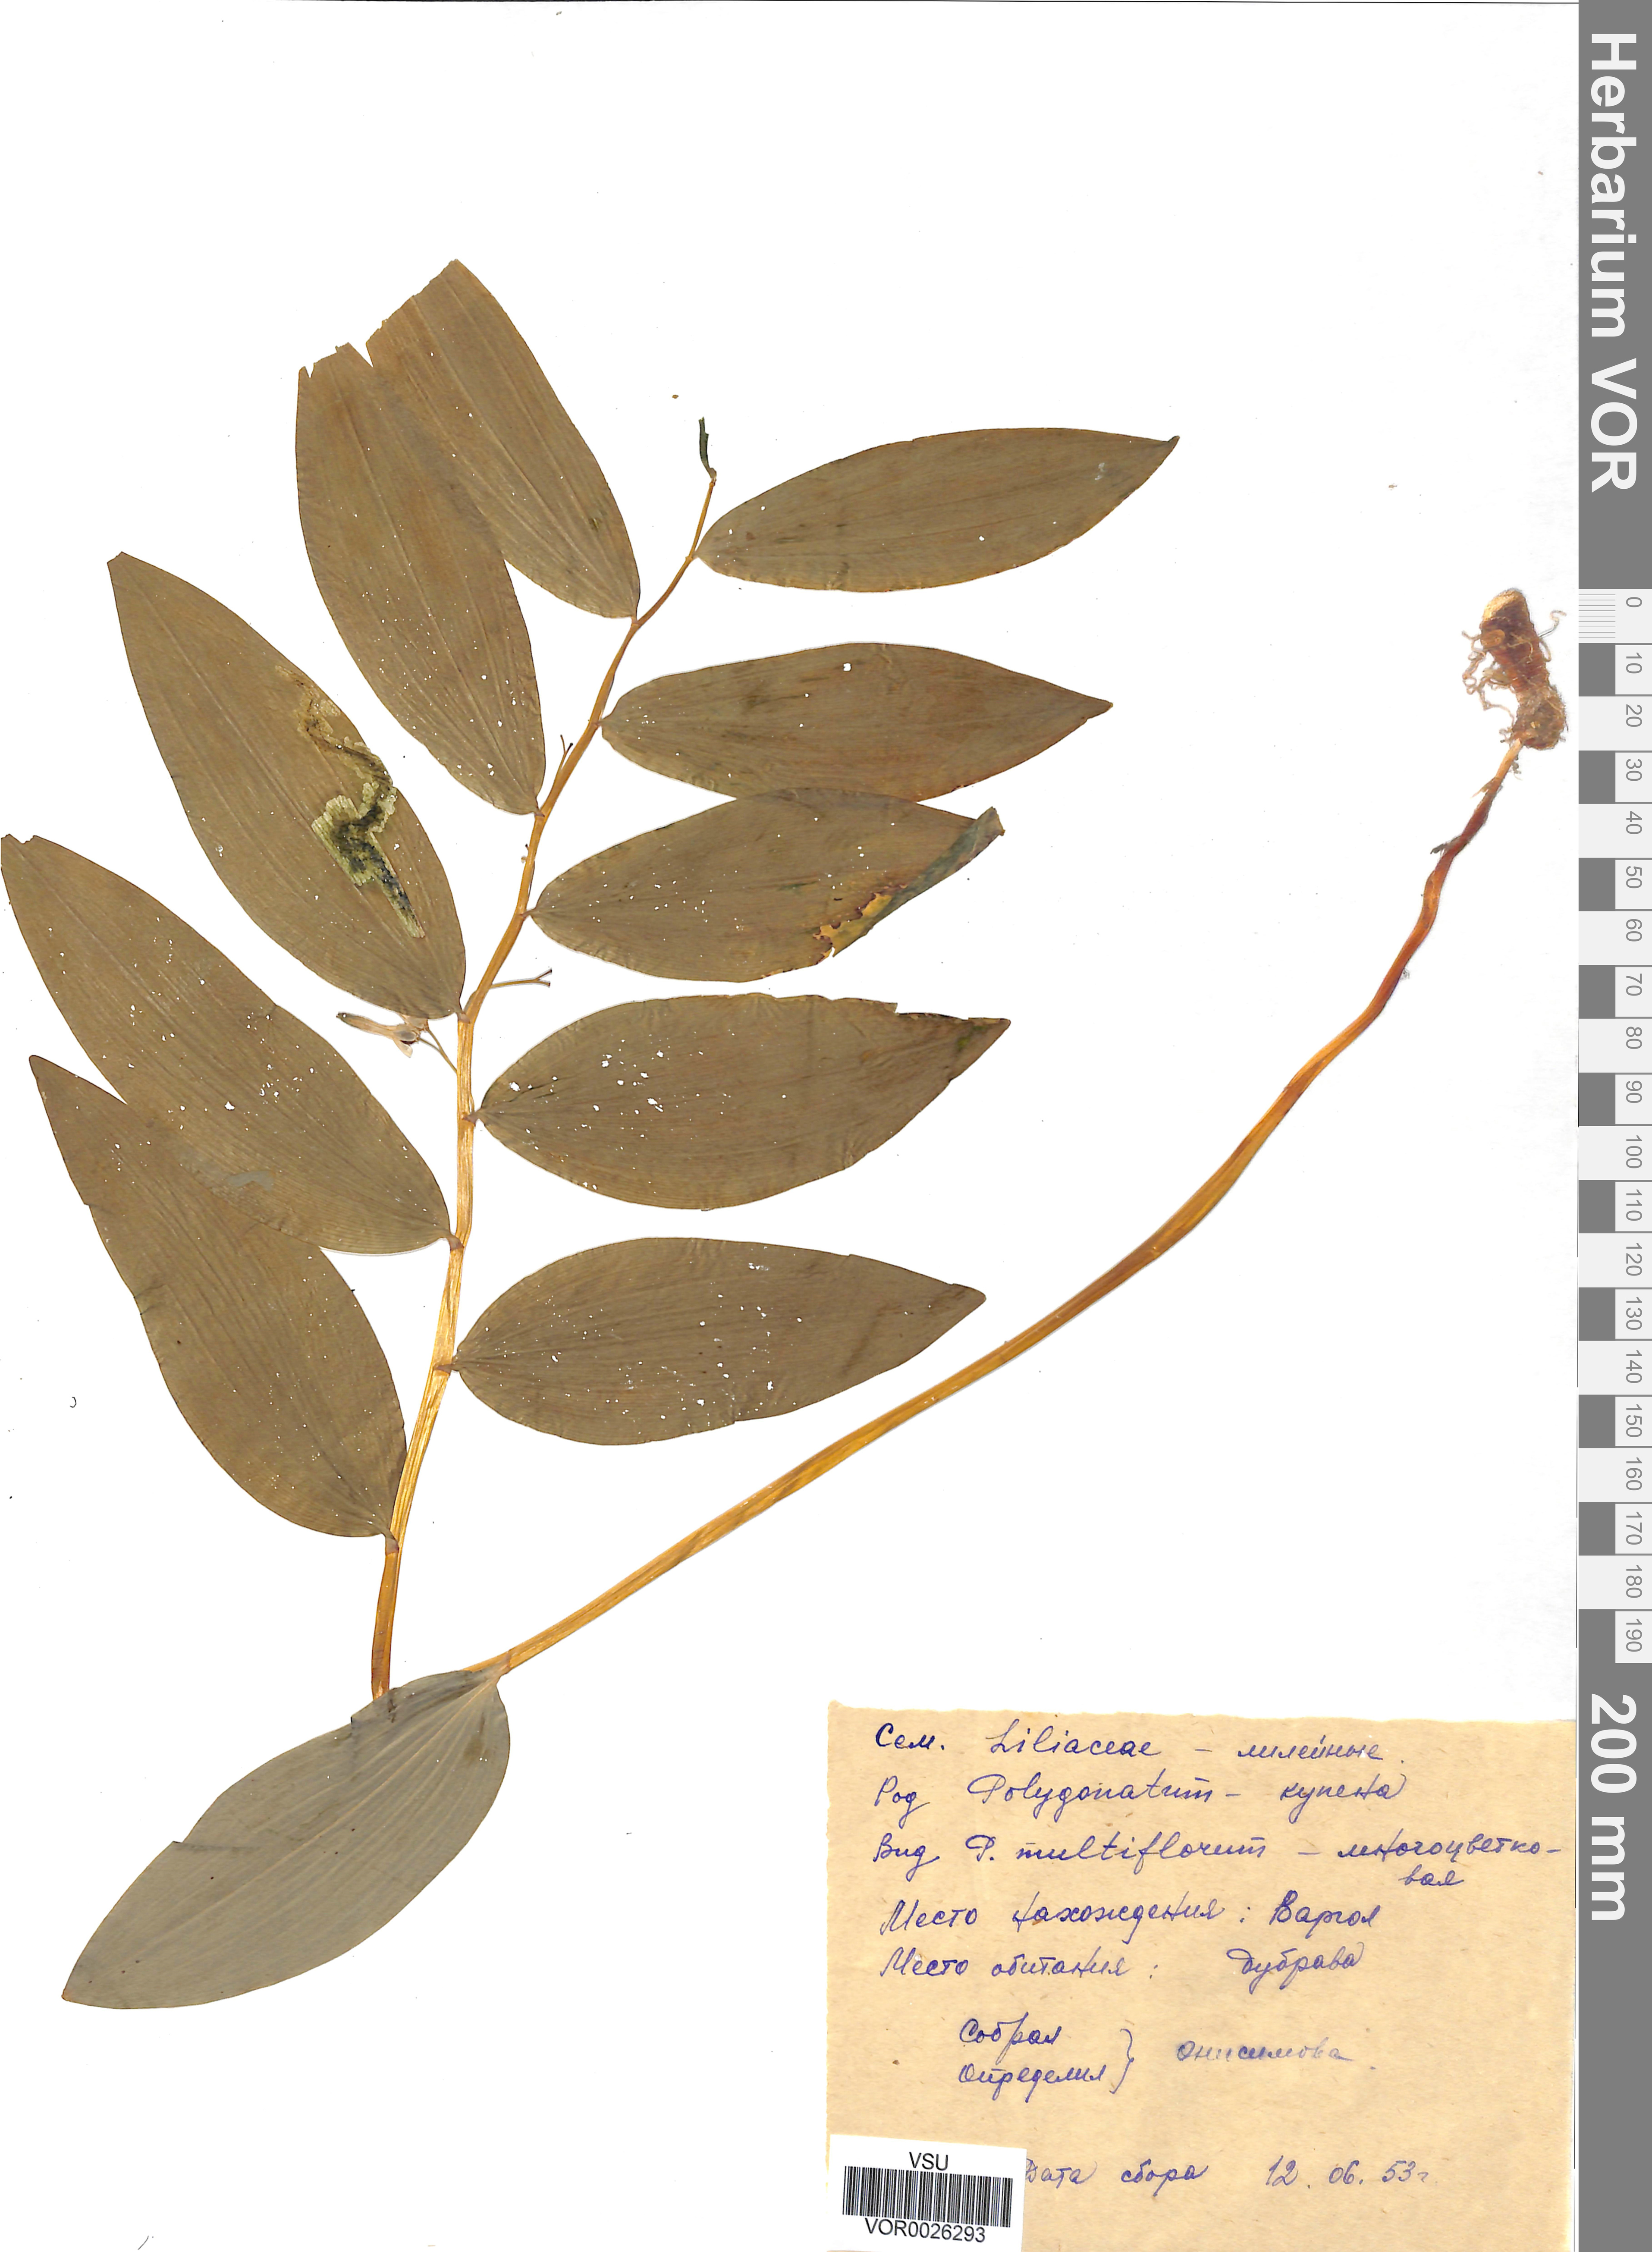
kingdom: Plantae
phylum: Tracheophyta
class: Liliopsida
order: Asparagales
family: Asparagaceae
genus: Polygonatum
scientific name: Polygonatum multiflorum
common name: Solomon's-seal
